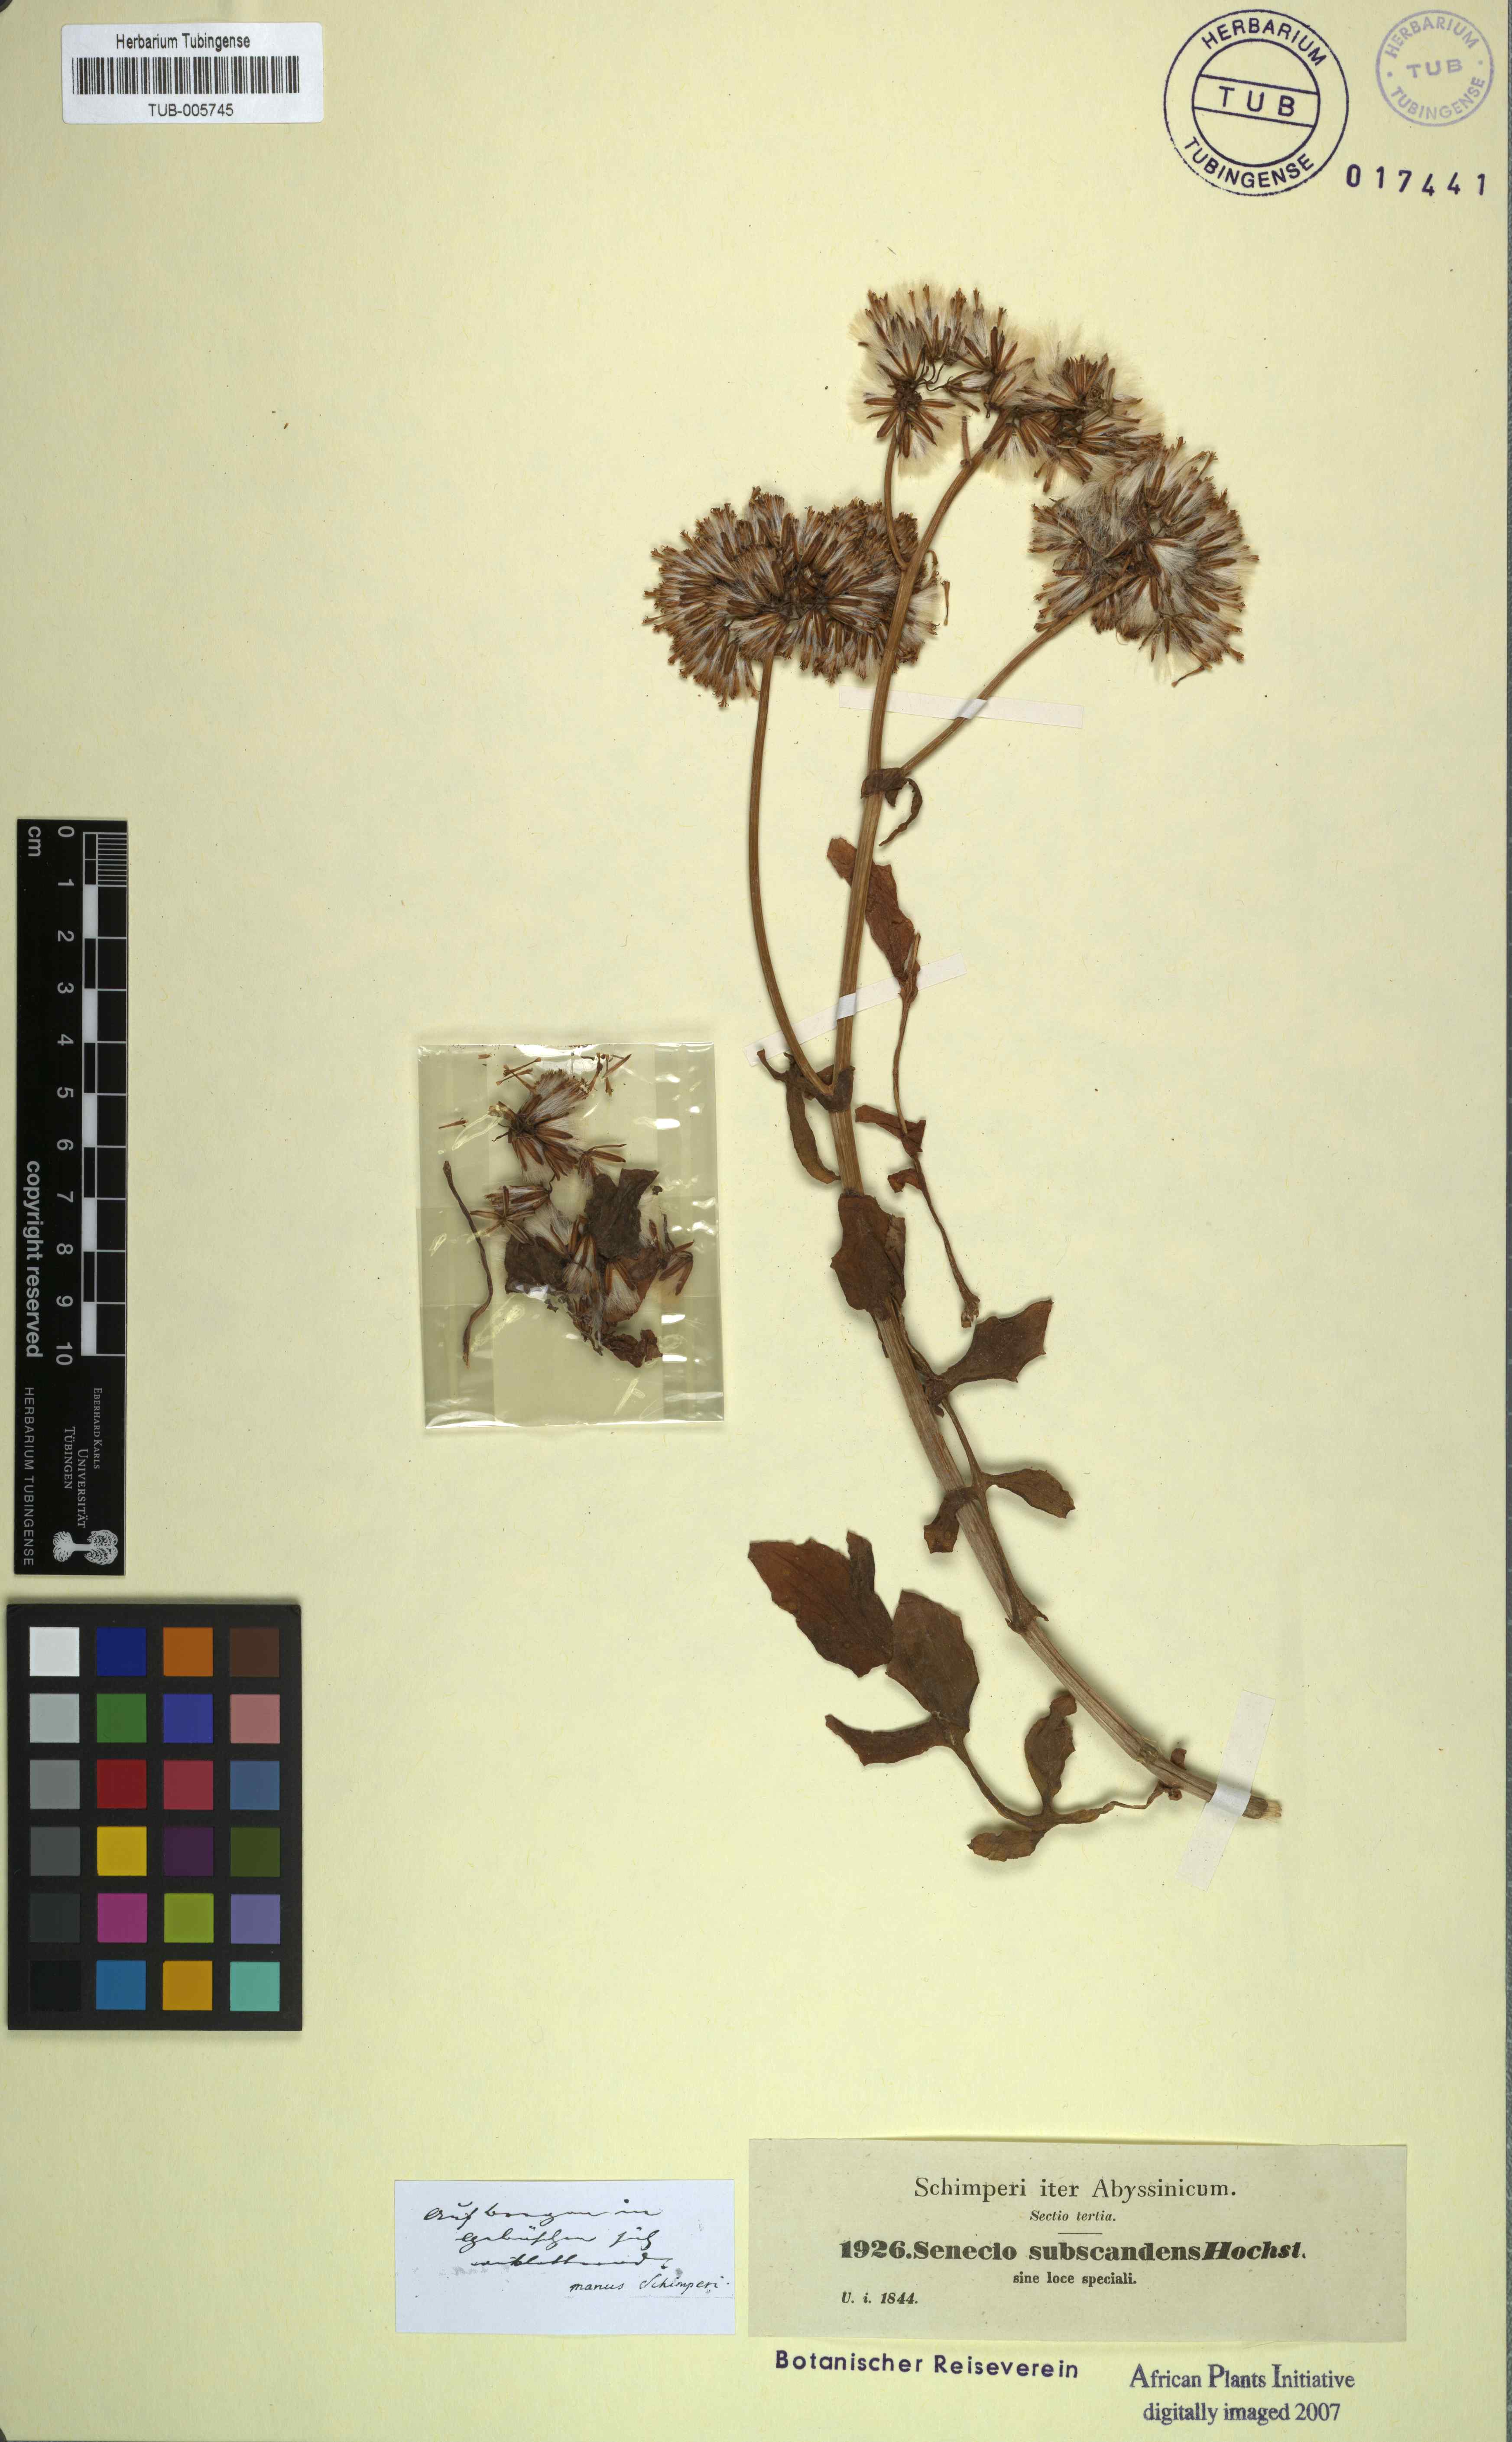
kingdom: Plantae
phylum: Tracheophyta
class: Magnoliopsida
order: Asterales
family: Asteraceae
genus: Solanecio
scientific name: Solanecio angulatus
